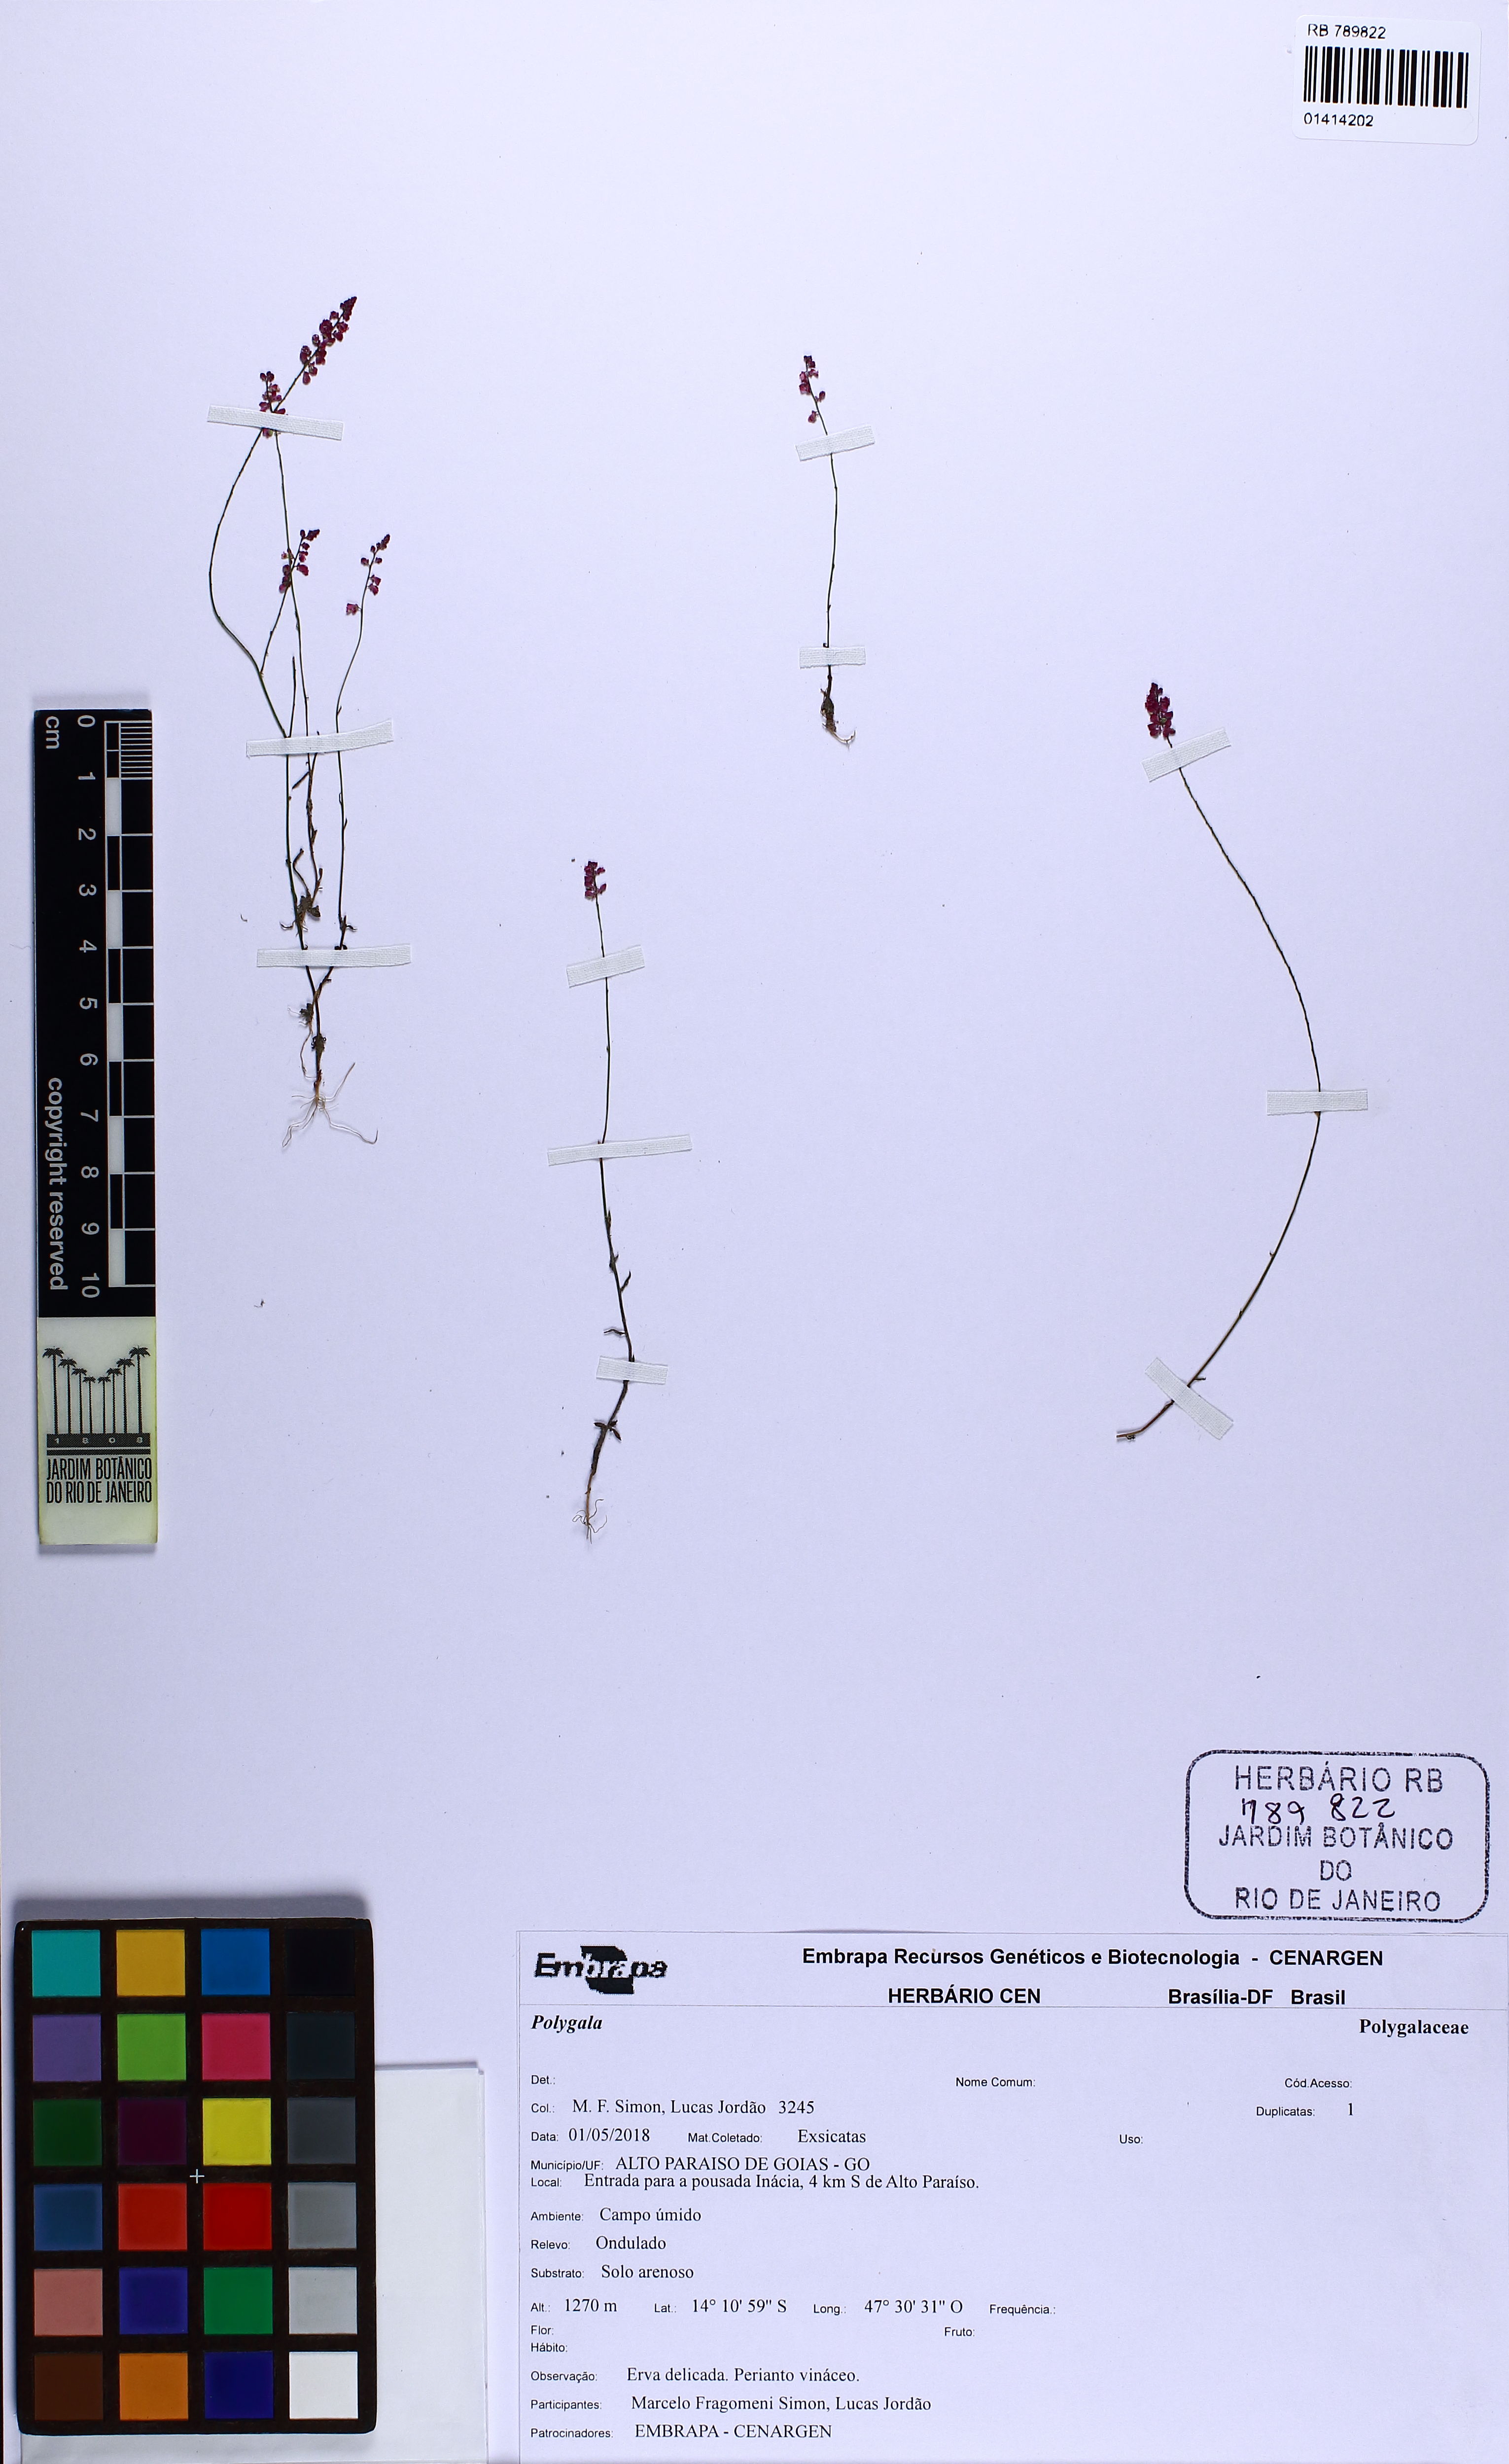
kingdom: Plantae
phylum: Tracheophyta
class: Magnoliopsida
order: Fabales
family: Polygalaceae
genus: Polygala
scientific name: Polygala
